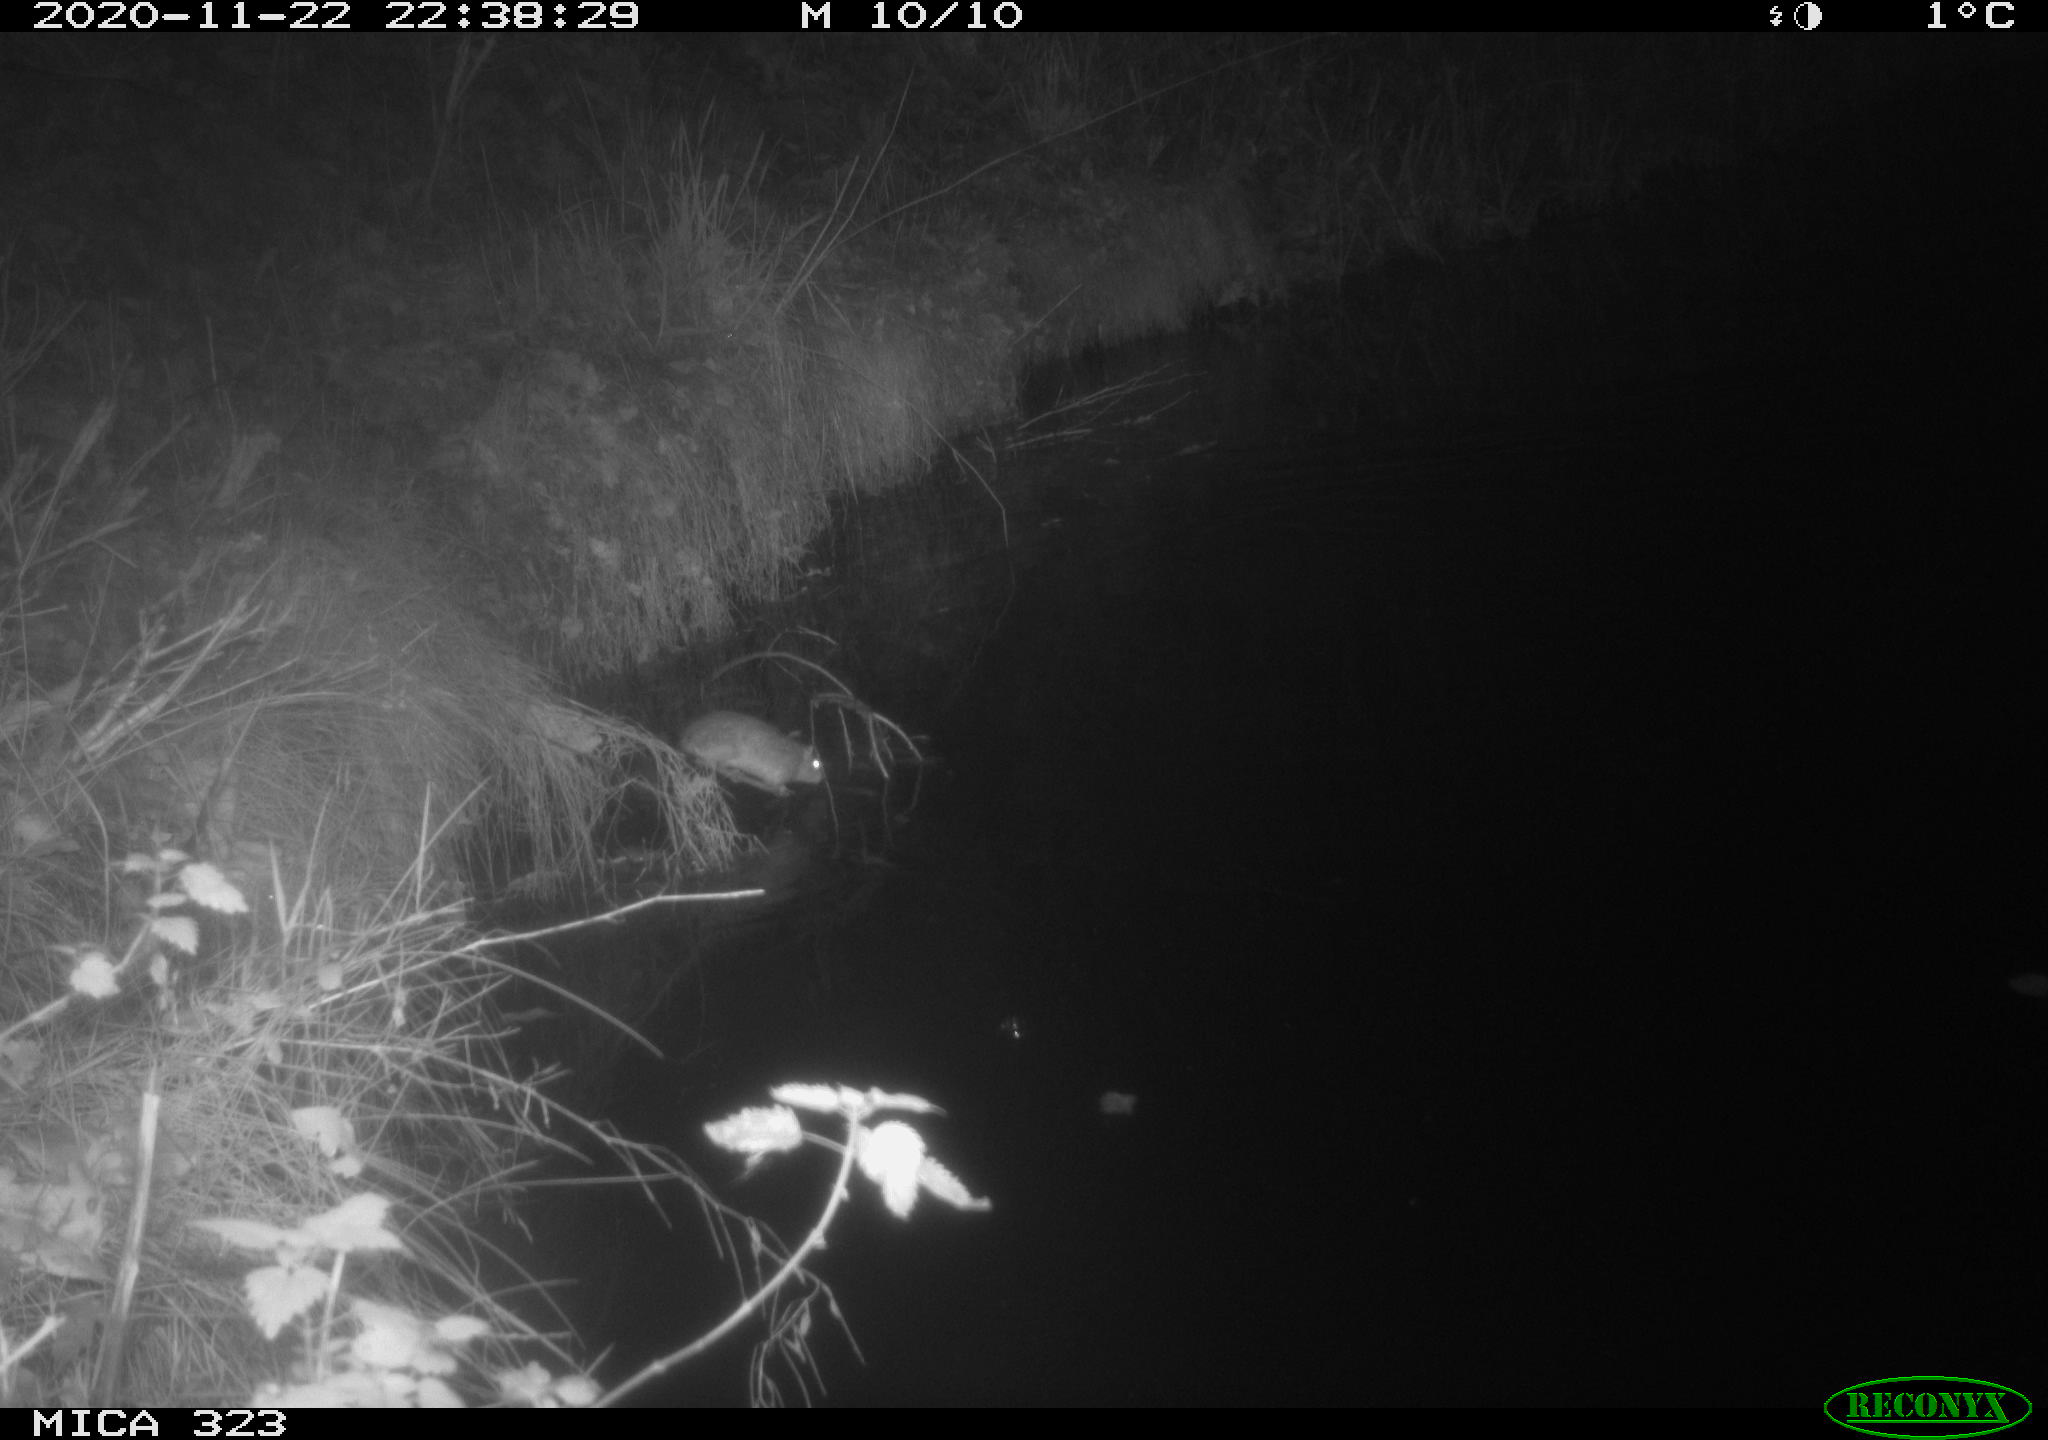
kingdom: Animalia
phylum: Chordata
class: Mammalia
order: Rodentia
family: Muridae
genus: Rattus
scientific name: Rattus norvegicus
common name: Brown rat
